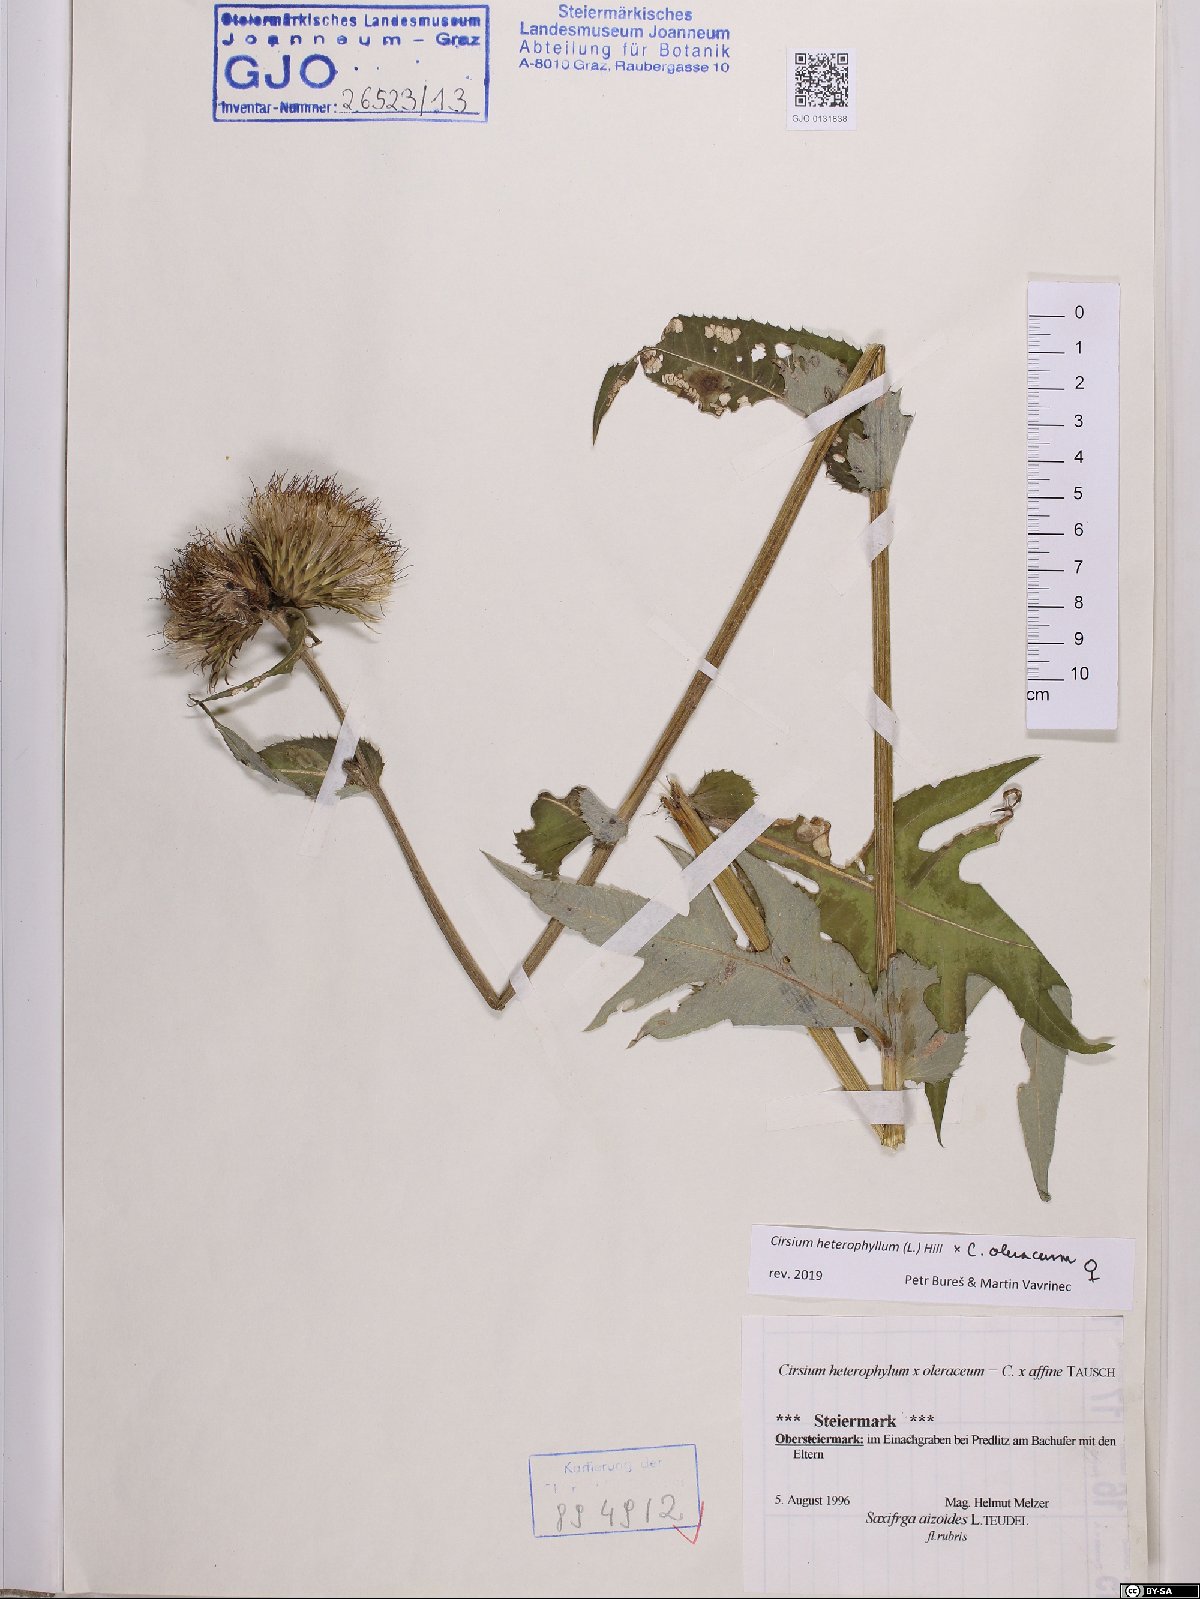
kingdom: Plantae
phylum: Tracheophyta
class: Magnoliopsida
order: Asterales
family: Asteraceae
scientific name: Asteraceae
